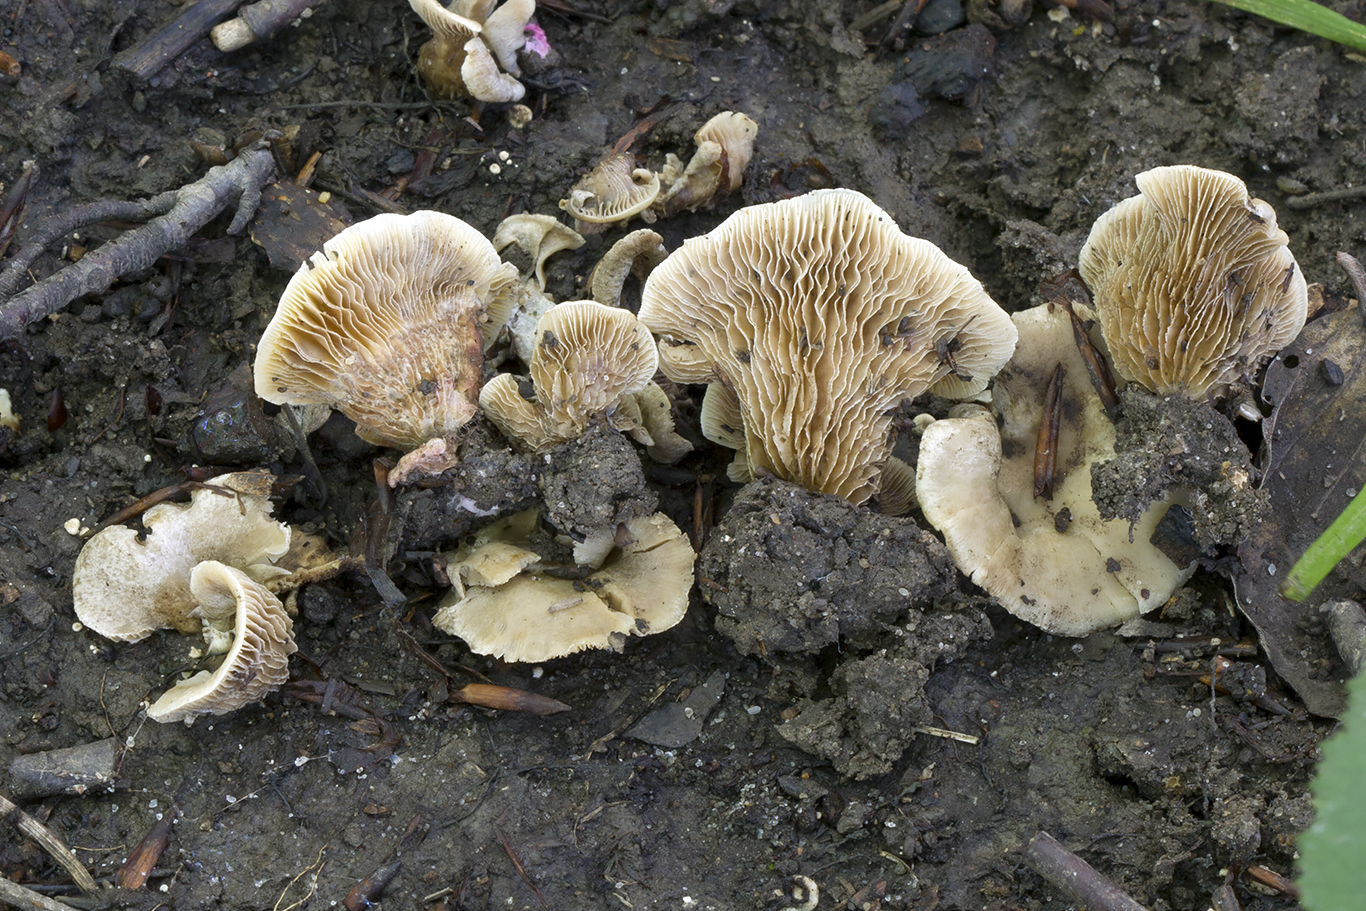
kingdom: Fungi
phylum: Basidiomycota
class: Agaricomycetes
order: Agaricales
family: Crepidotaceae
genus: Crepidotus
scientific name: Crepidotus autochthonus
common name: skæv muslingesvamp
